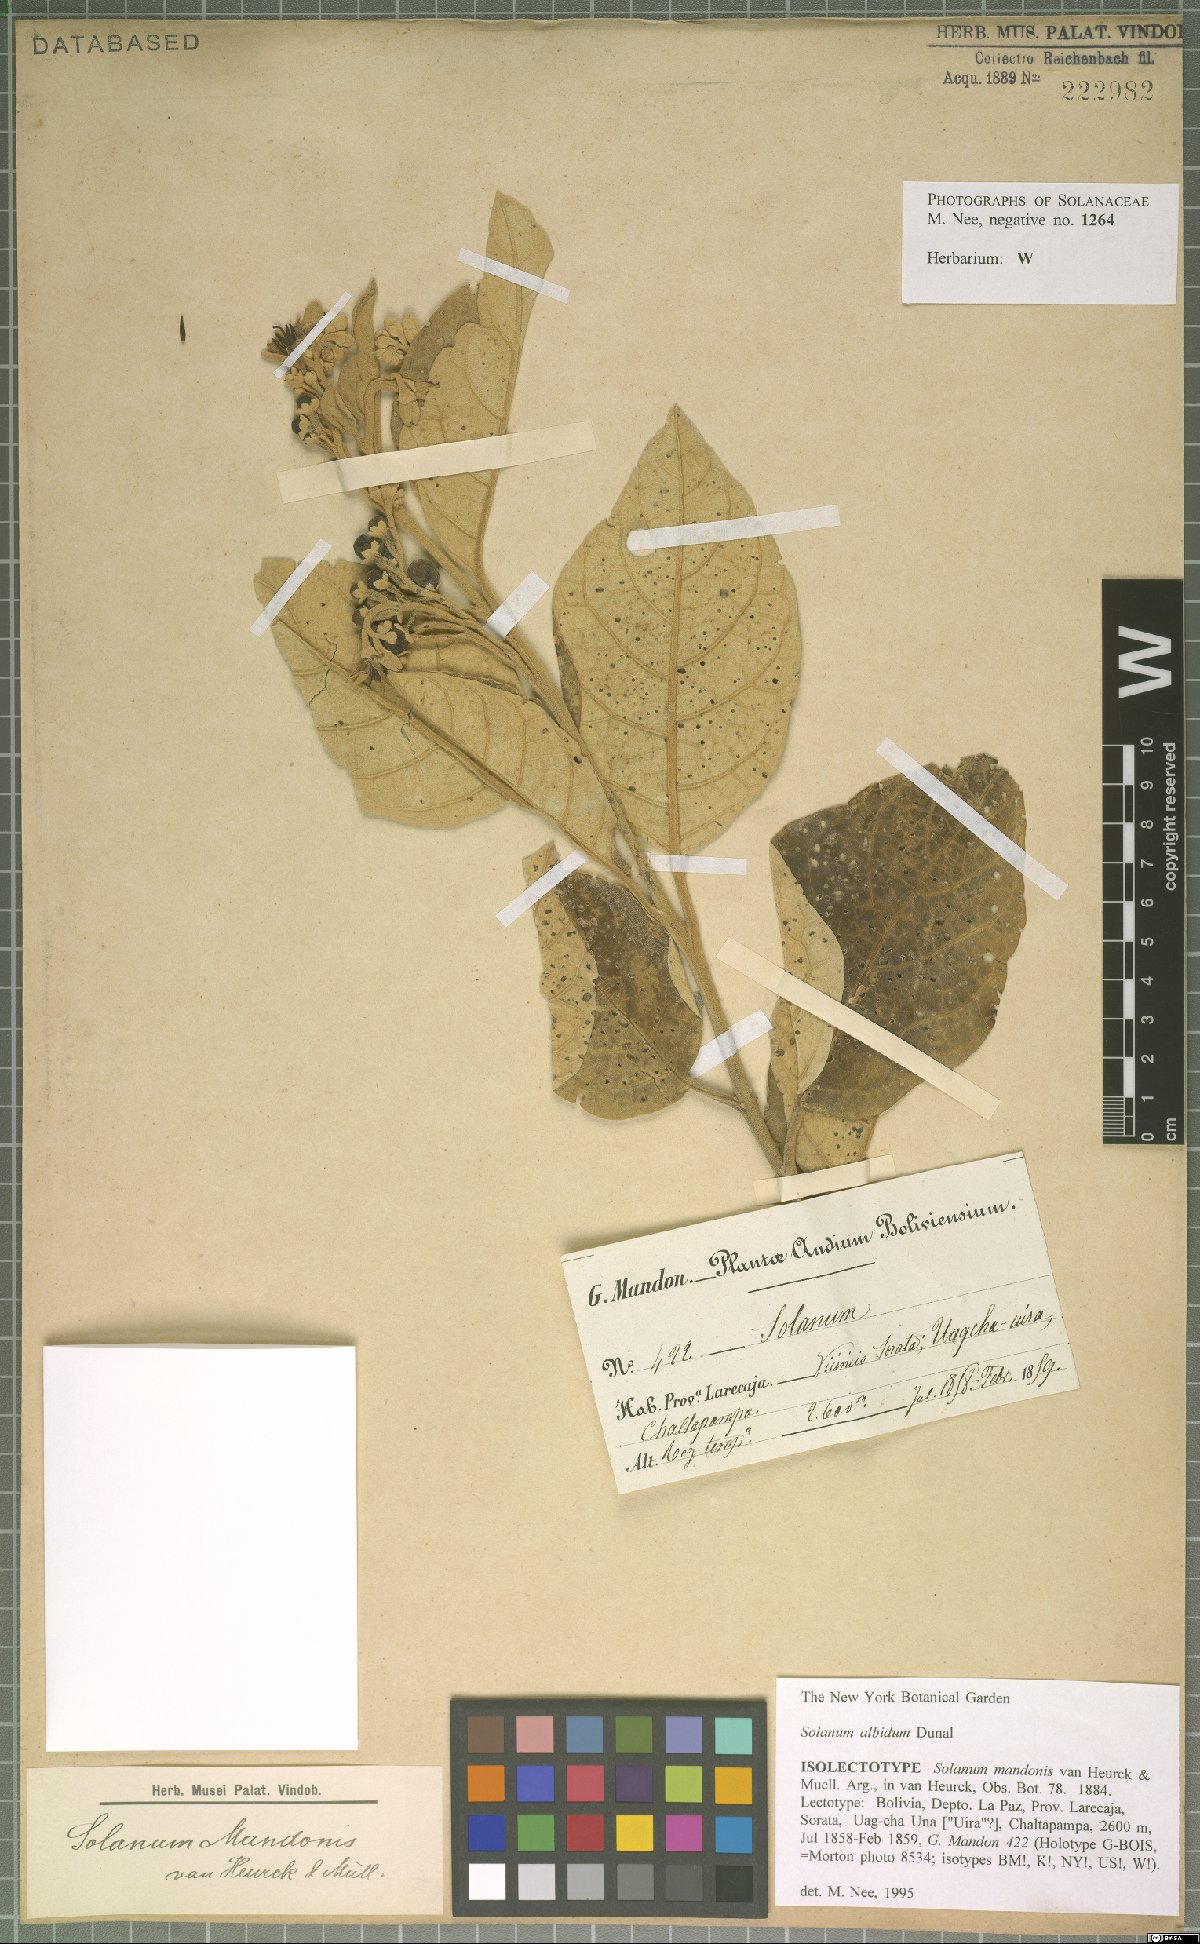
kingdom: Plantae
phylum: Tracheophyta
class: Magnoliopsida
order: Solanales
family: Solanaceae
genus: Solanum
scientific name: Solanum anguivi
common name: Forest bitterberry
